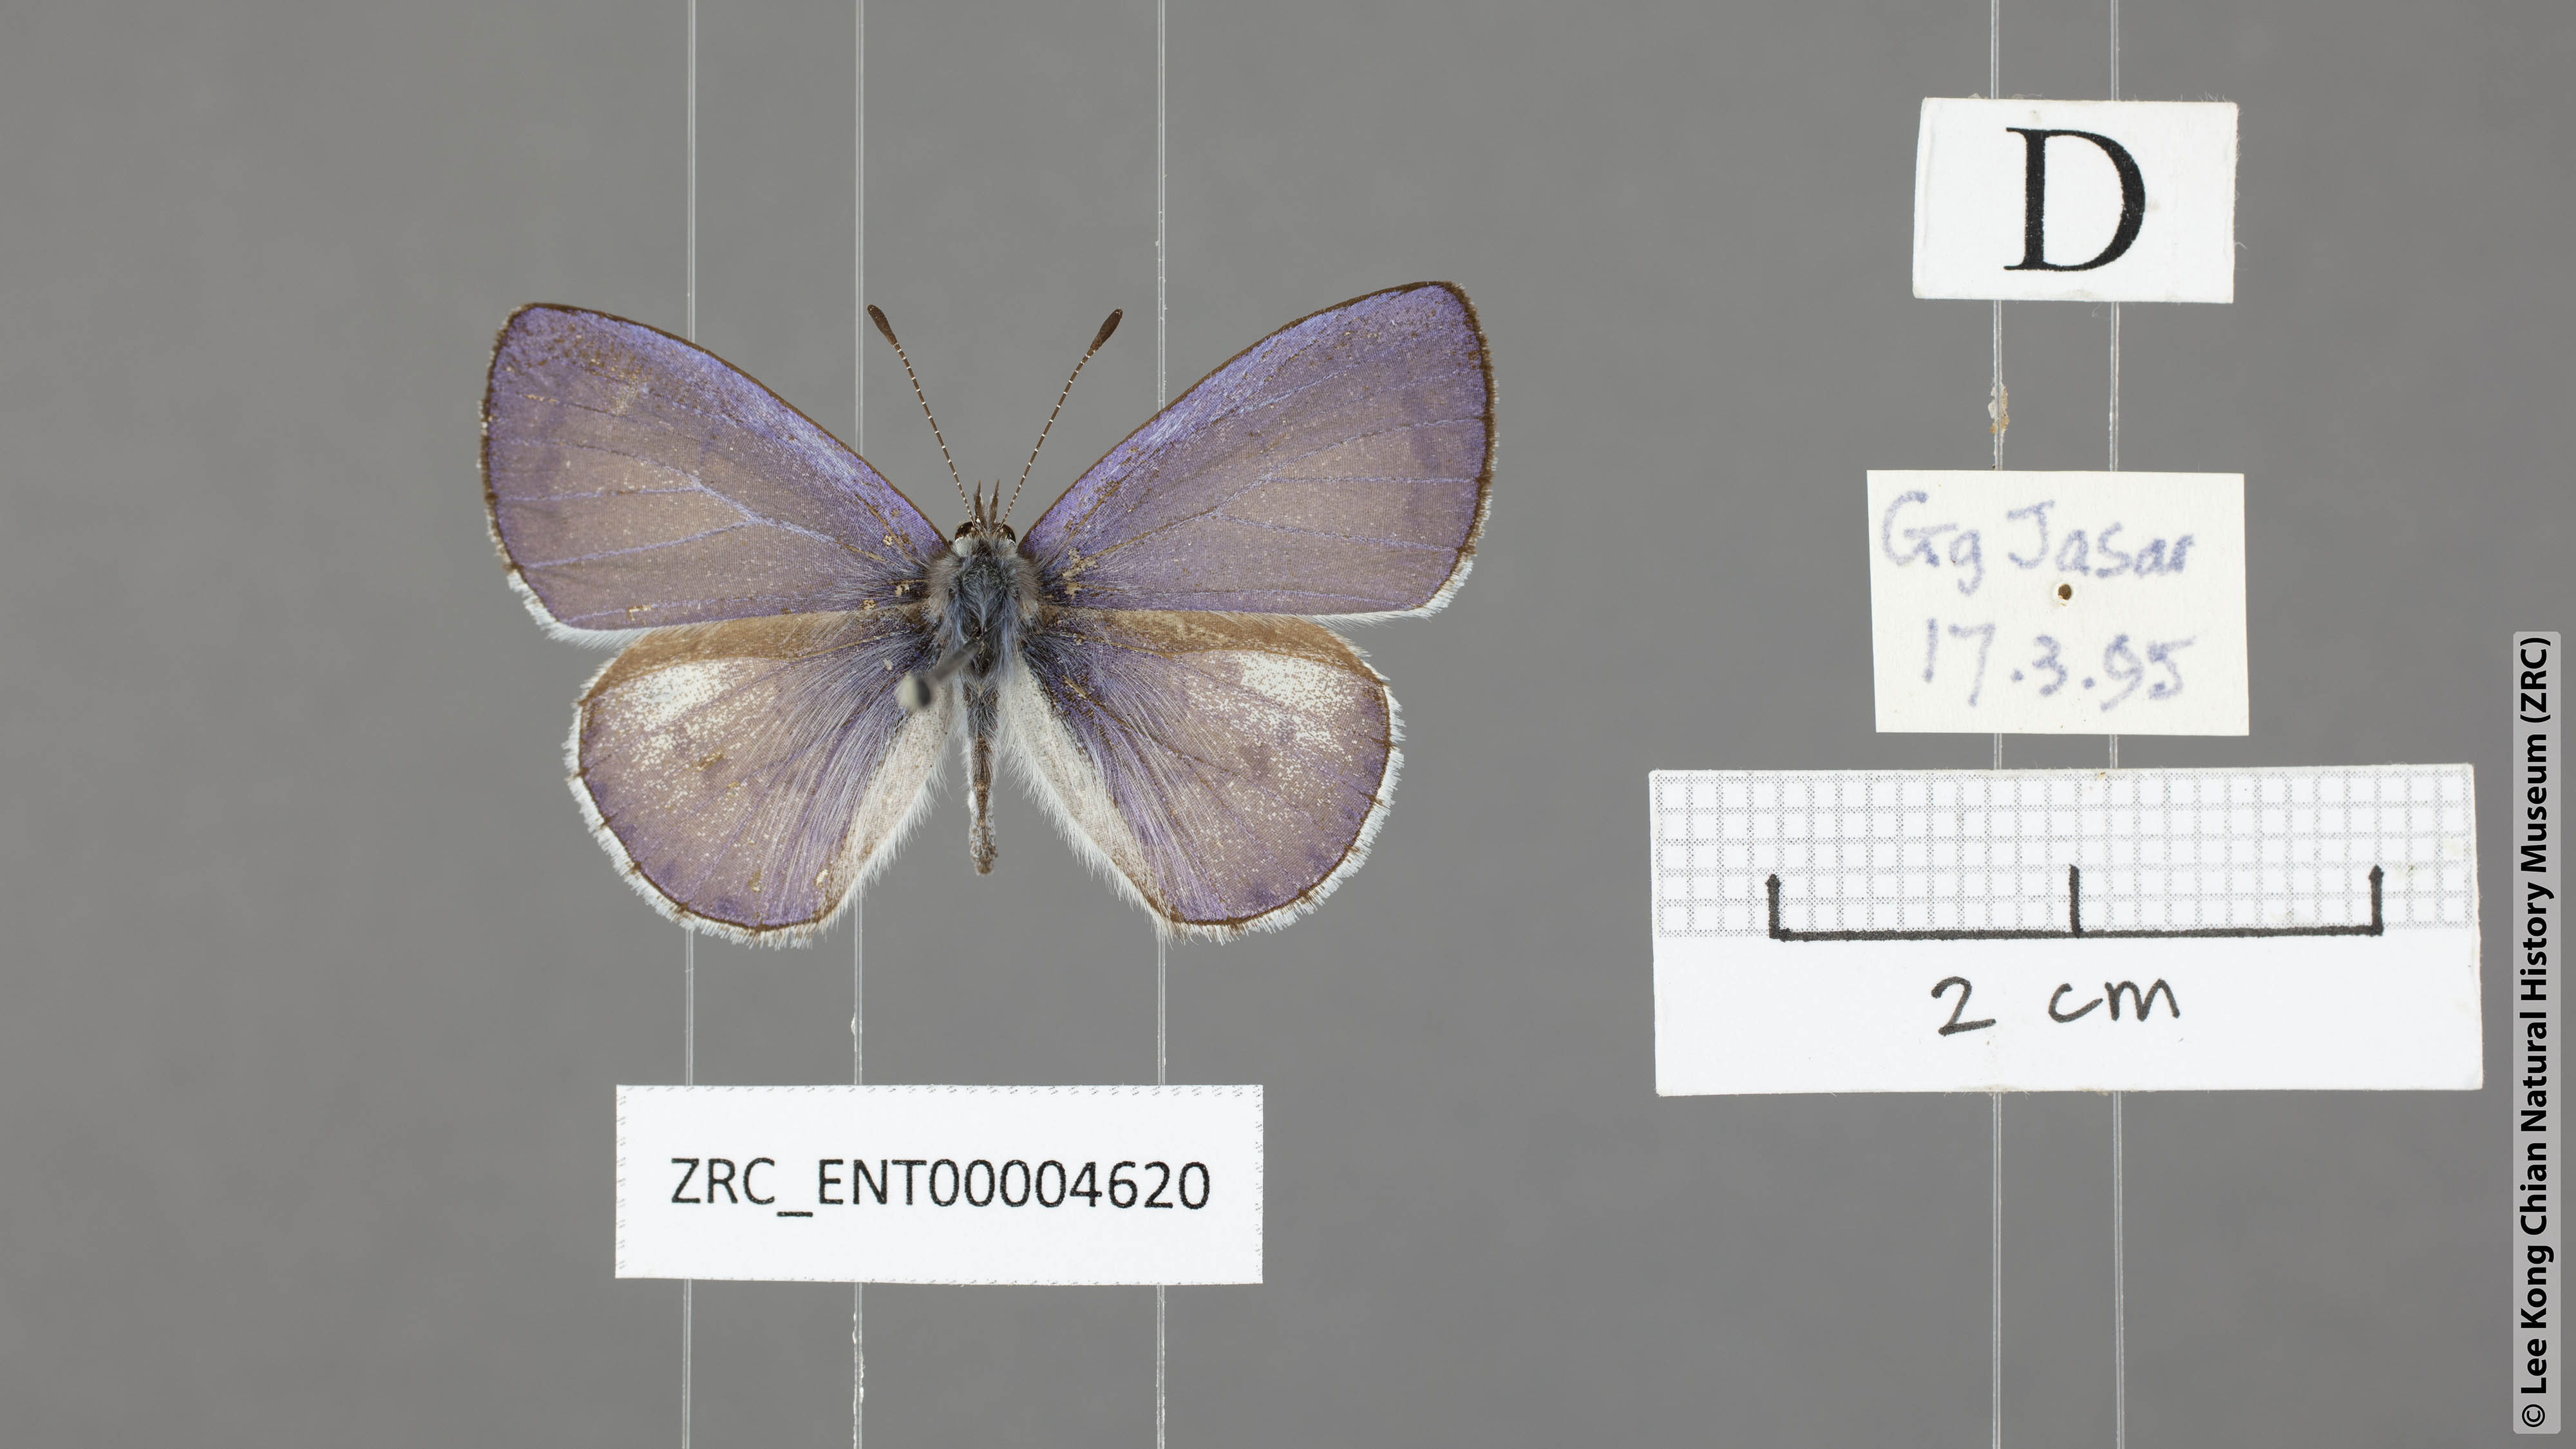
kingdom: Animalia
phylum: Arthropoda
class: Insecta
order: Lepidoptera
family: Lycaenidae
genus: Udara
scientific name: Udara
